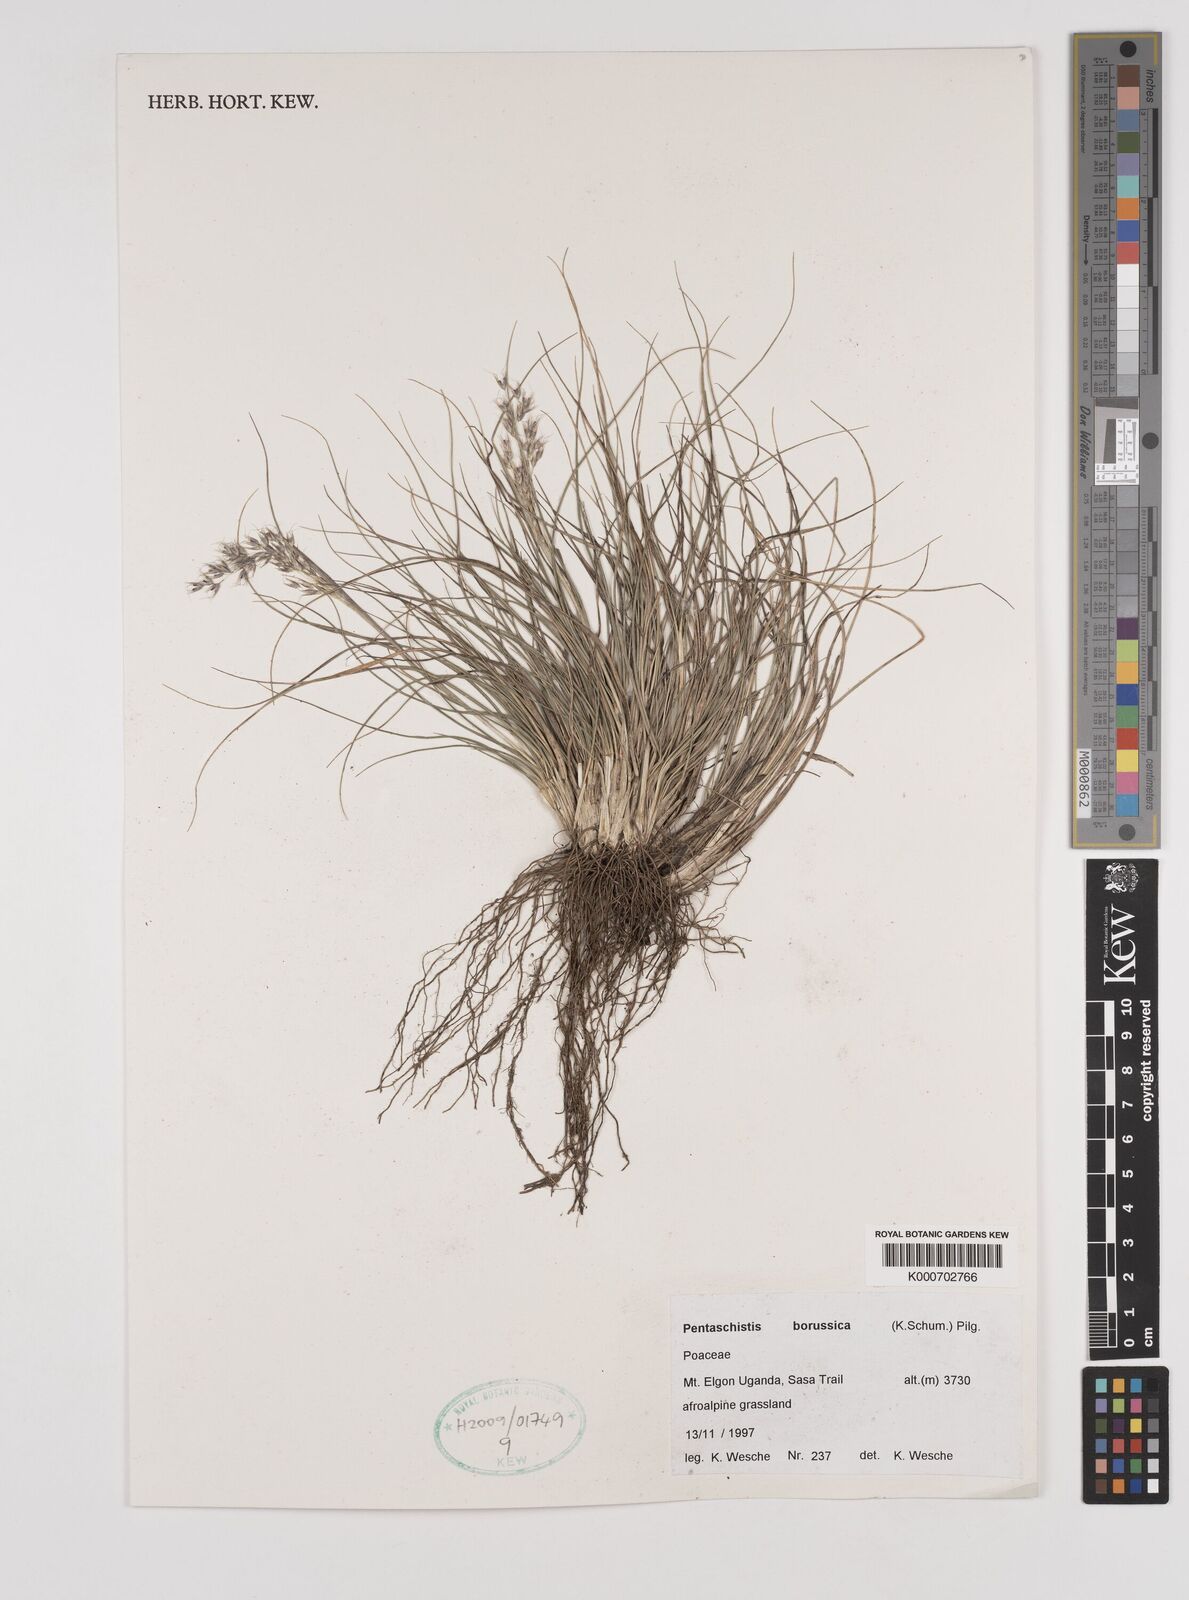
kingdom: Plantae
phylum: Tracheophyta
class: Liliopsida
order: Poales
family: Poaceae
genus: Pentameris
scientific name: Pentameris borussica
